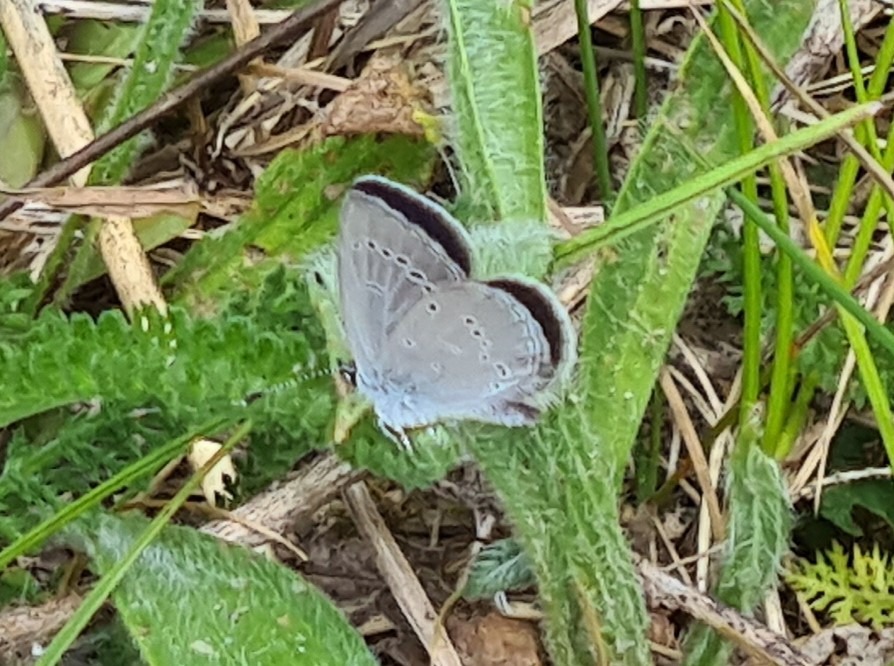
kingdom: Animalia
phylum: Arthropoda
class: Insecta
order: Lepidoptera
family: Lycaenidae
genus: Cupido
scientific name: Cupido minimus
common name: Dværgblåfugl
